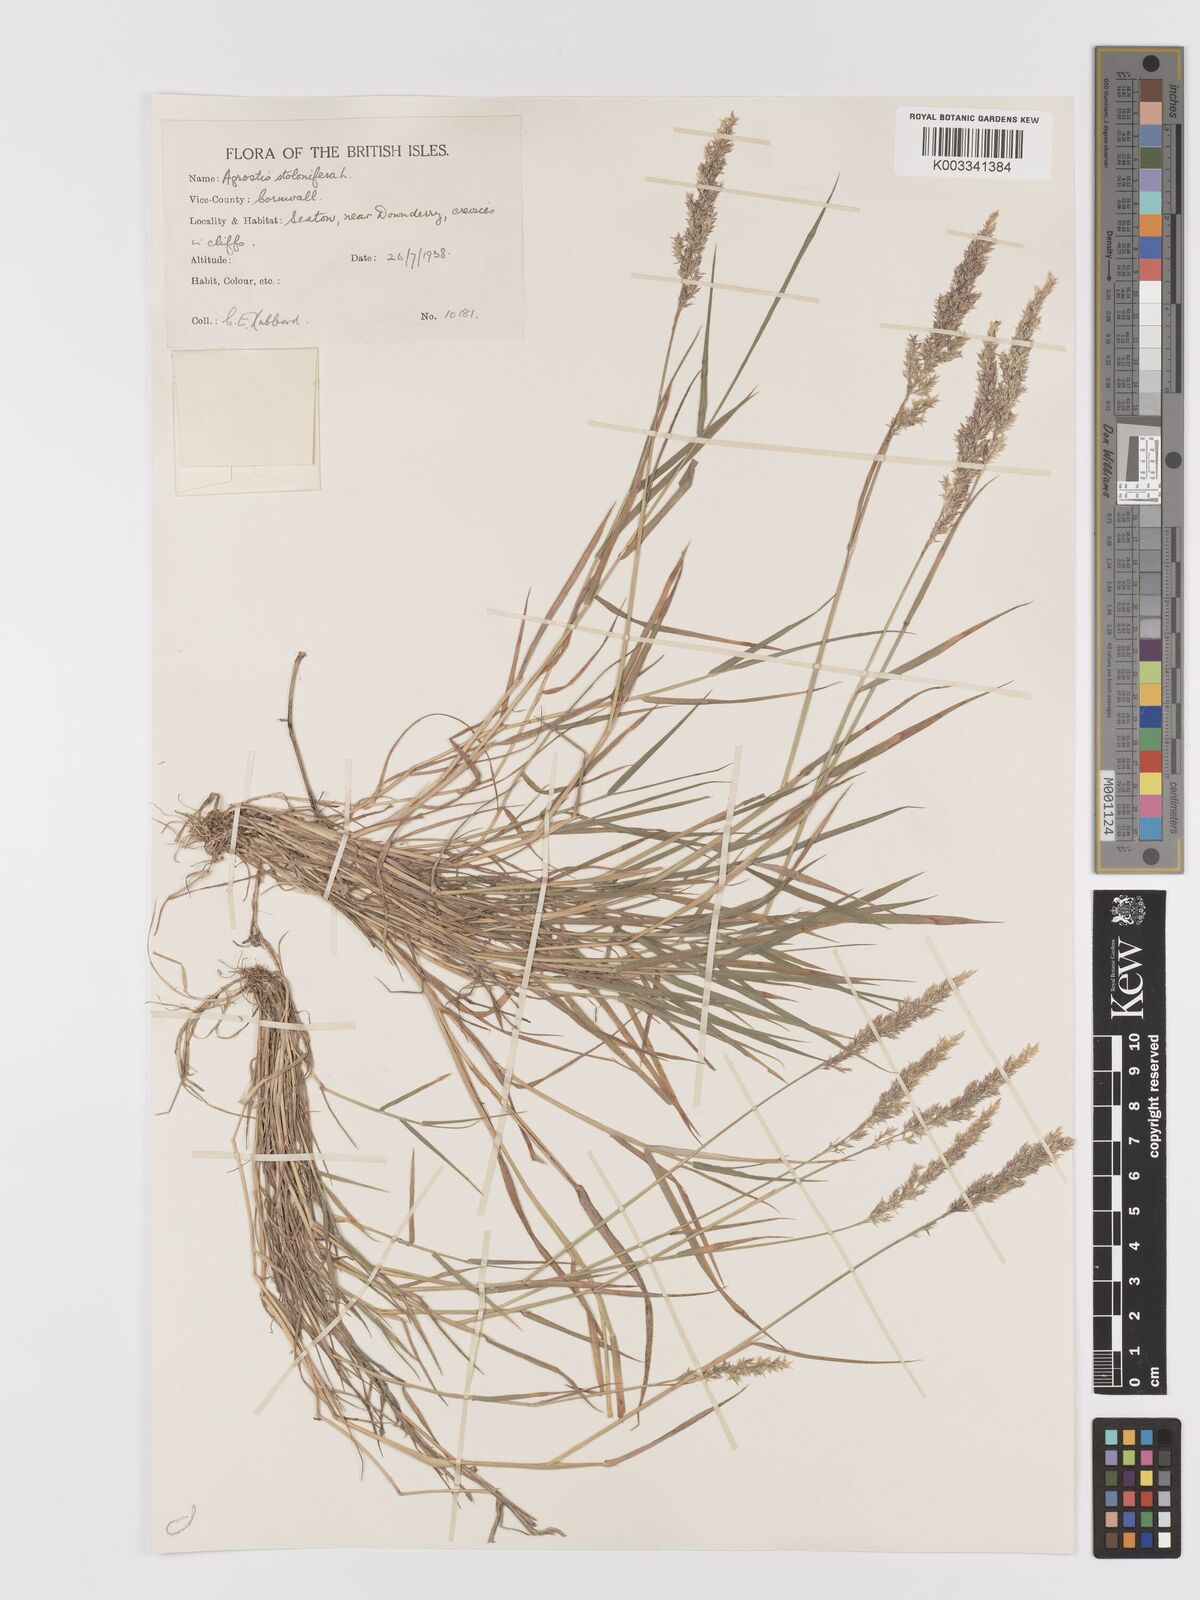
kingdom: Plantae
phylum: Tracheophyta
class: Liliopsida
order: Poales
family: Poaceae
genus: Agrostis
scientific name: Agrostis stolonifera
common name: Creeping bentgrass
